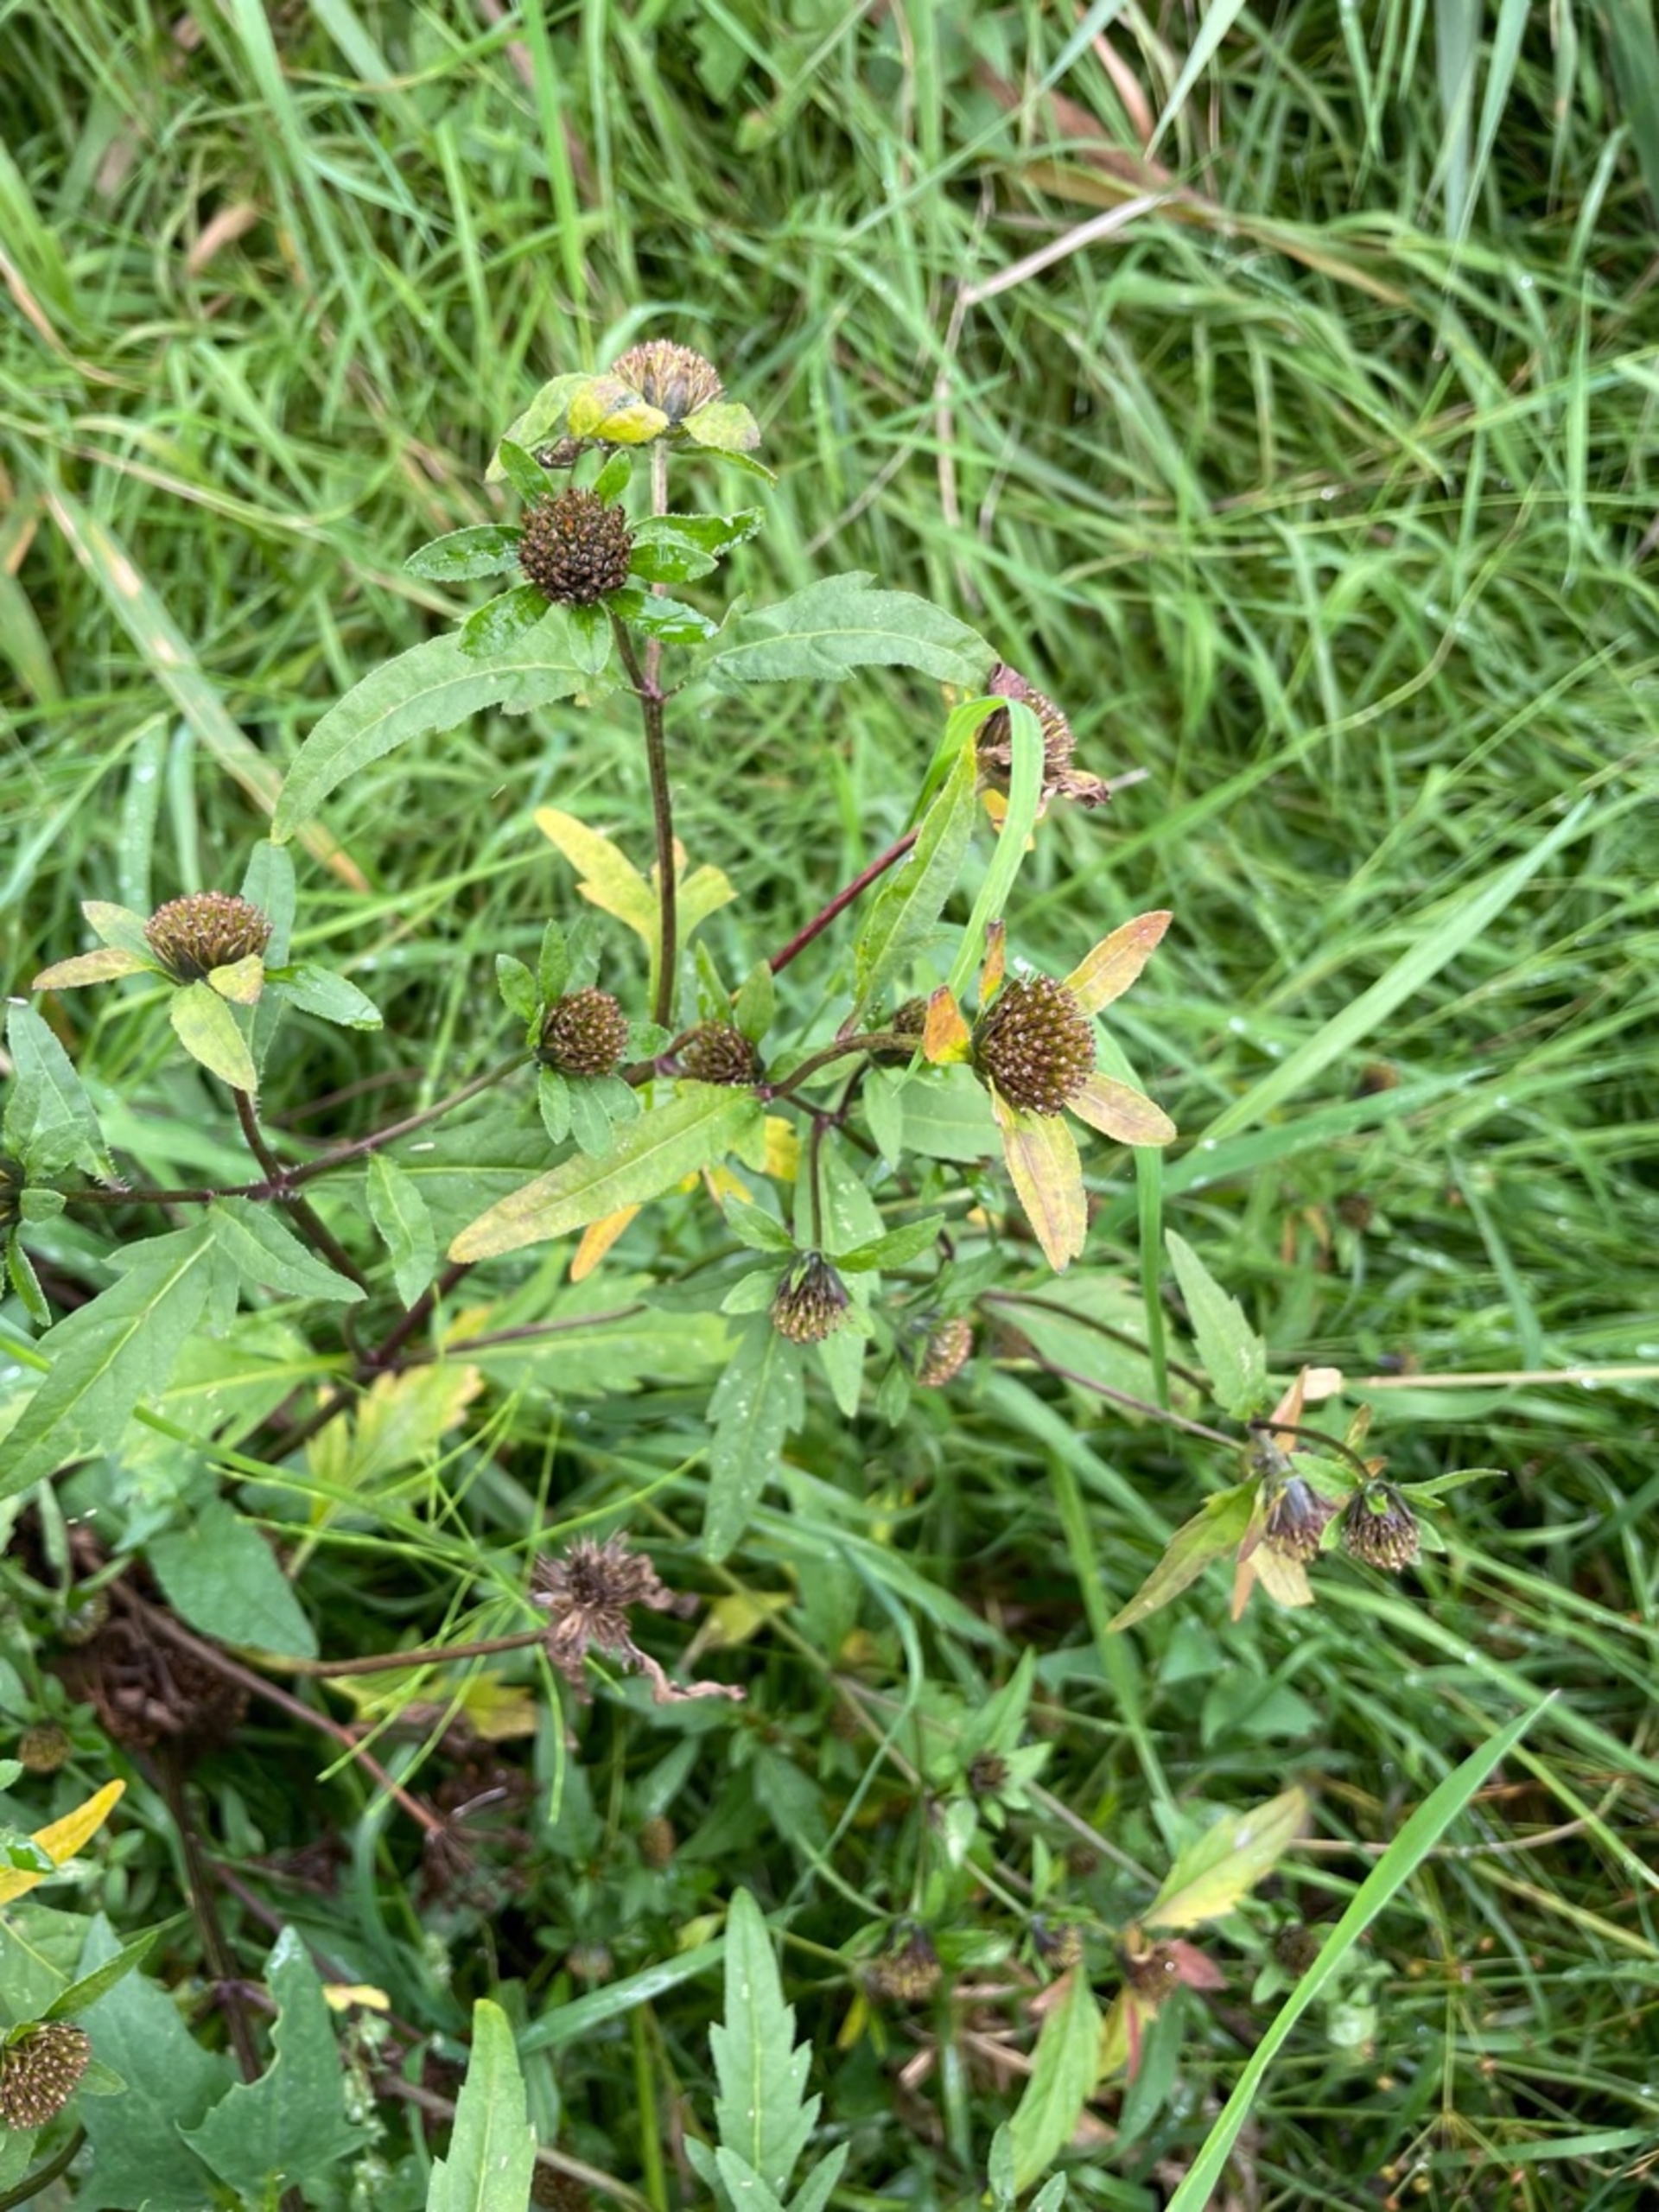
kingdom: Plantae
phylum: Tracheophyta
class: Magnoliopsida
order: Asterales
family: Asteraceae
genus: Bidens
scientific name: Bidens tripartita
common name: Fliget brøndsel
